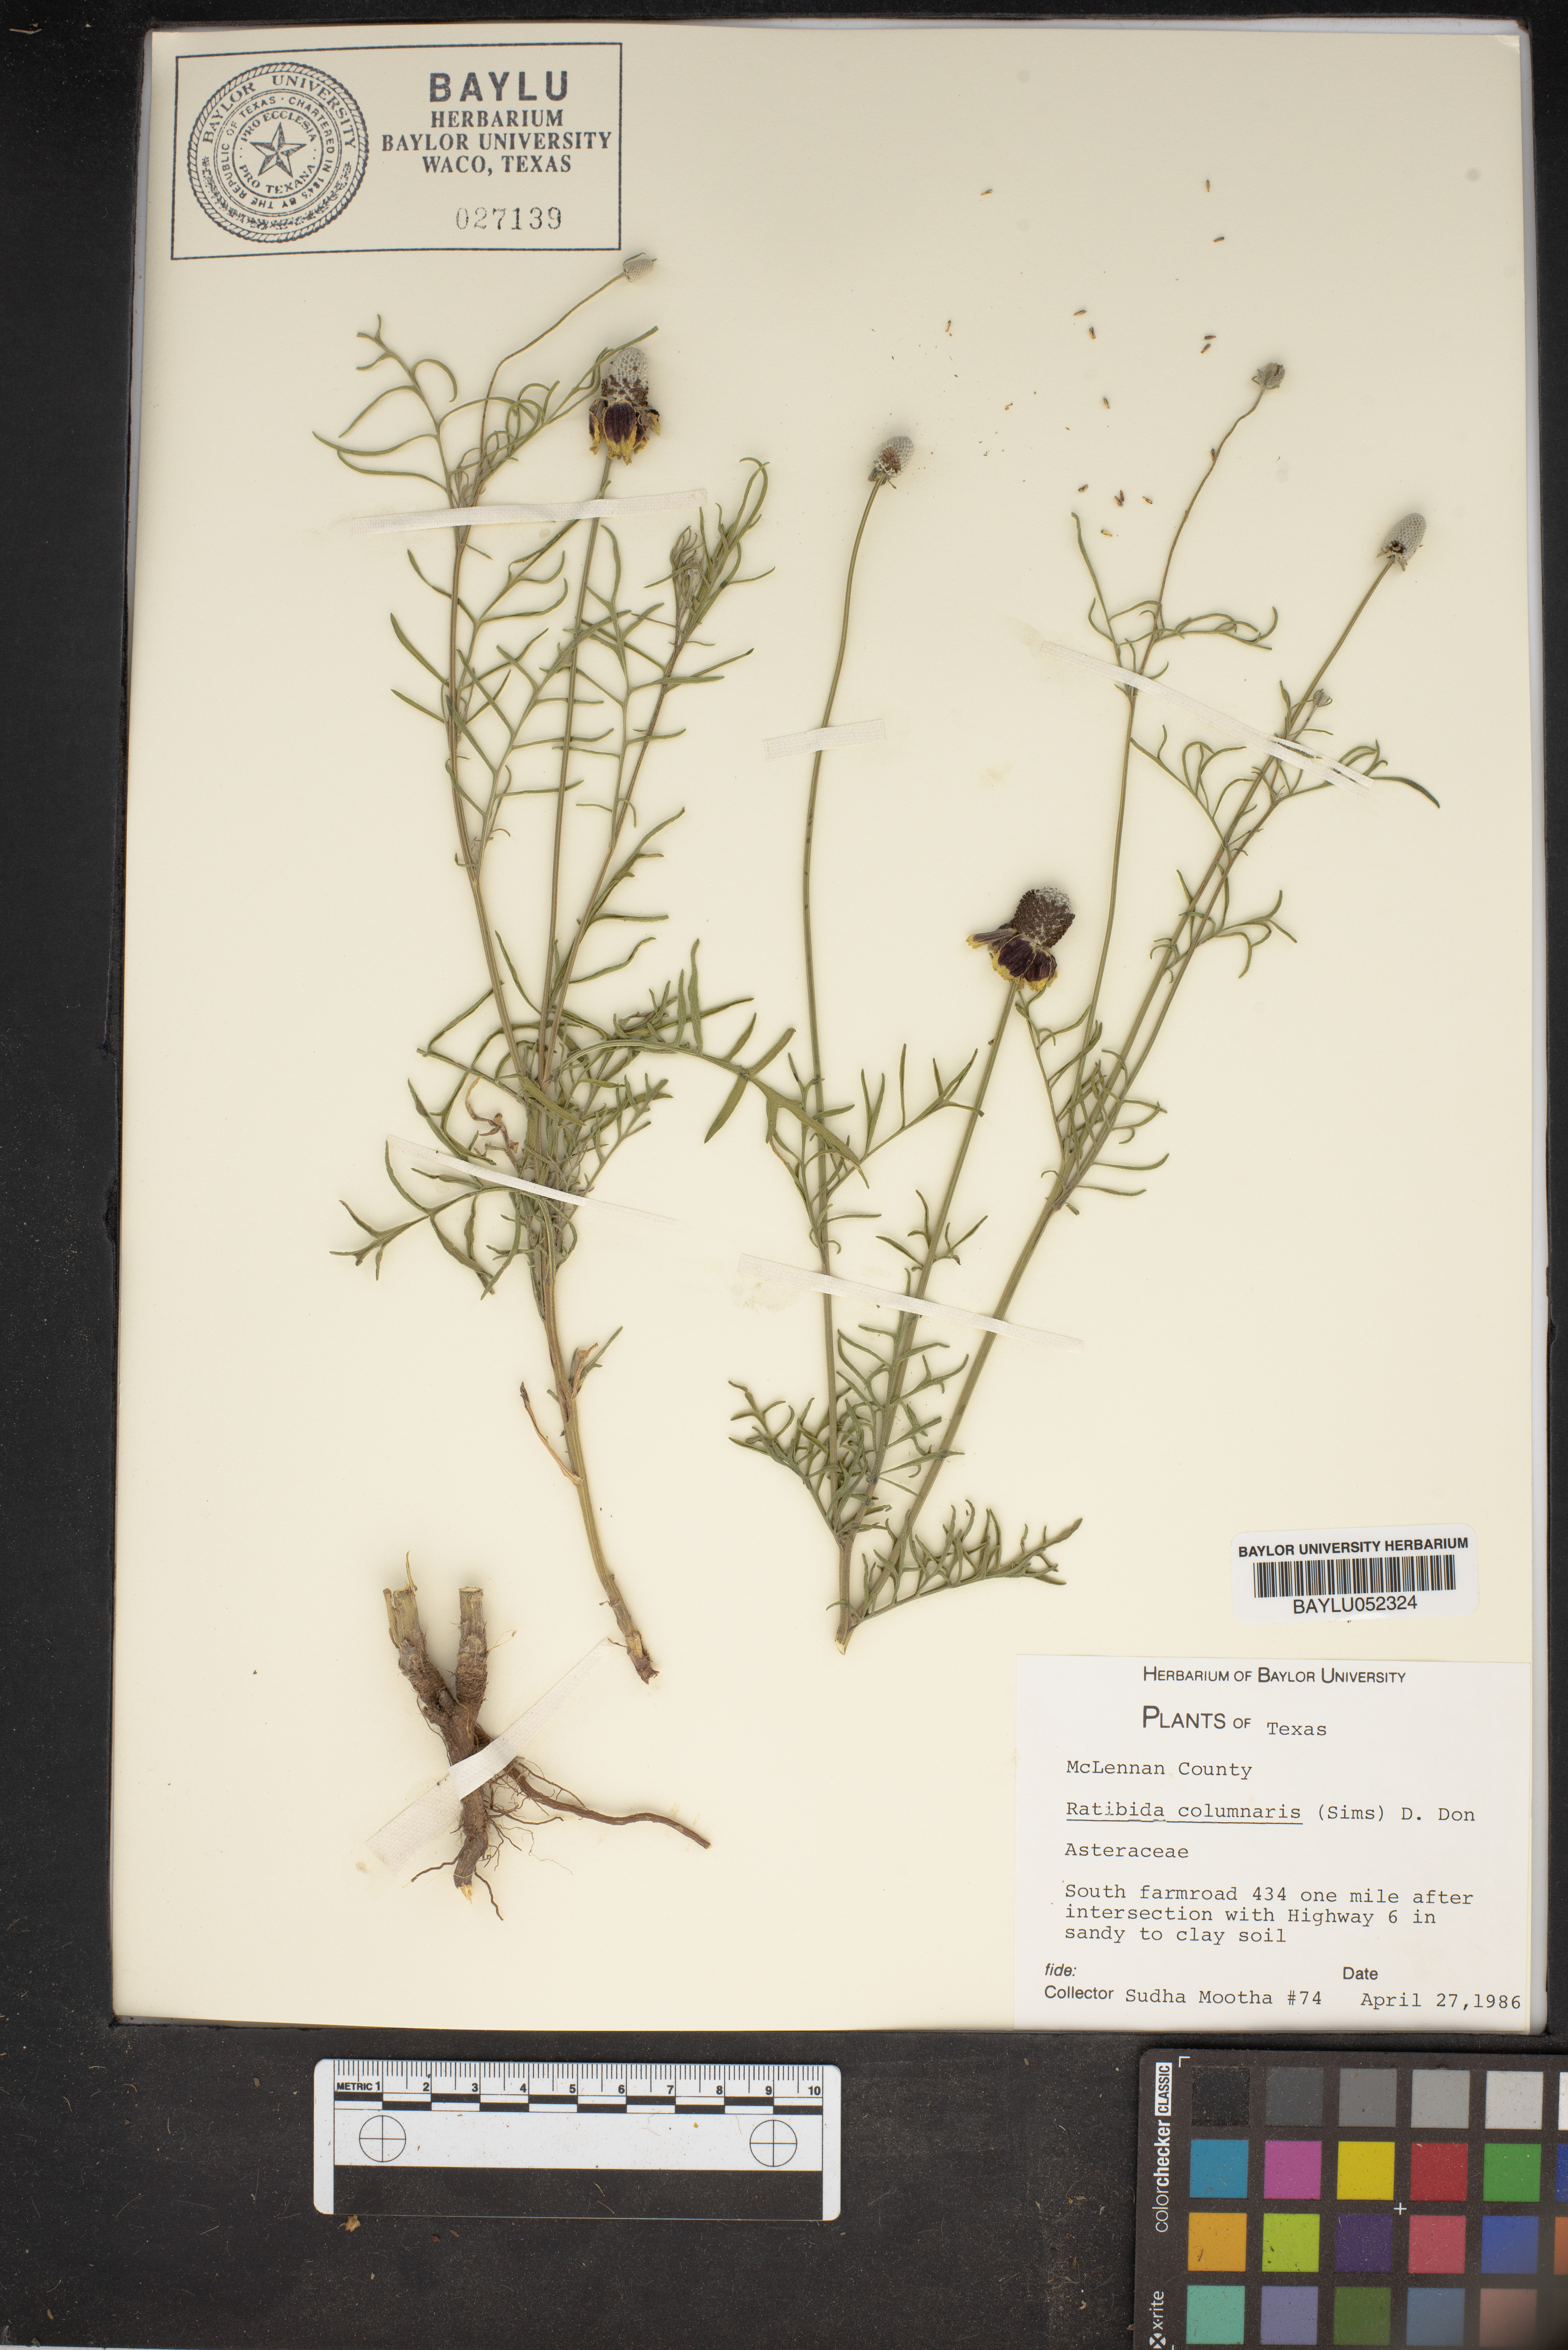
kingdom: Plantae
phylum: Tracheophyta
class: Magnoliopsida
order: Asterales
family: Asteraceae
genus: Ratibida
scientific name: Ratibida columnifera
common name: Prairie coneflower
